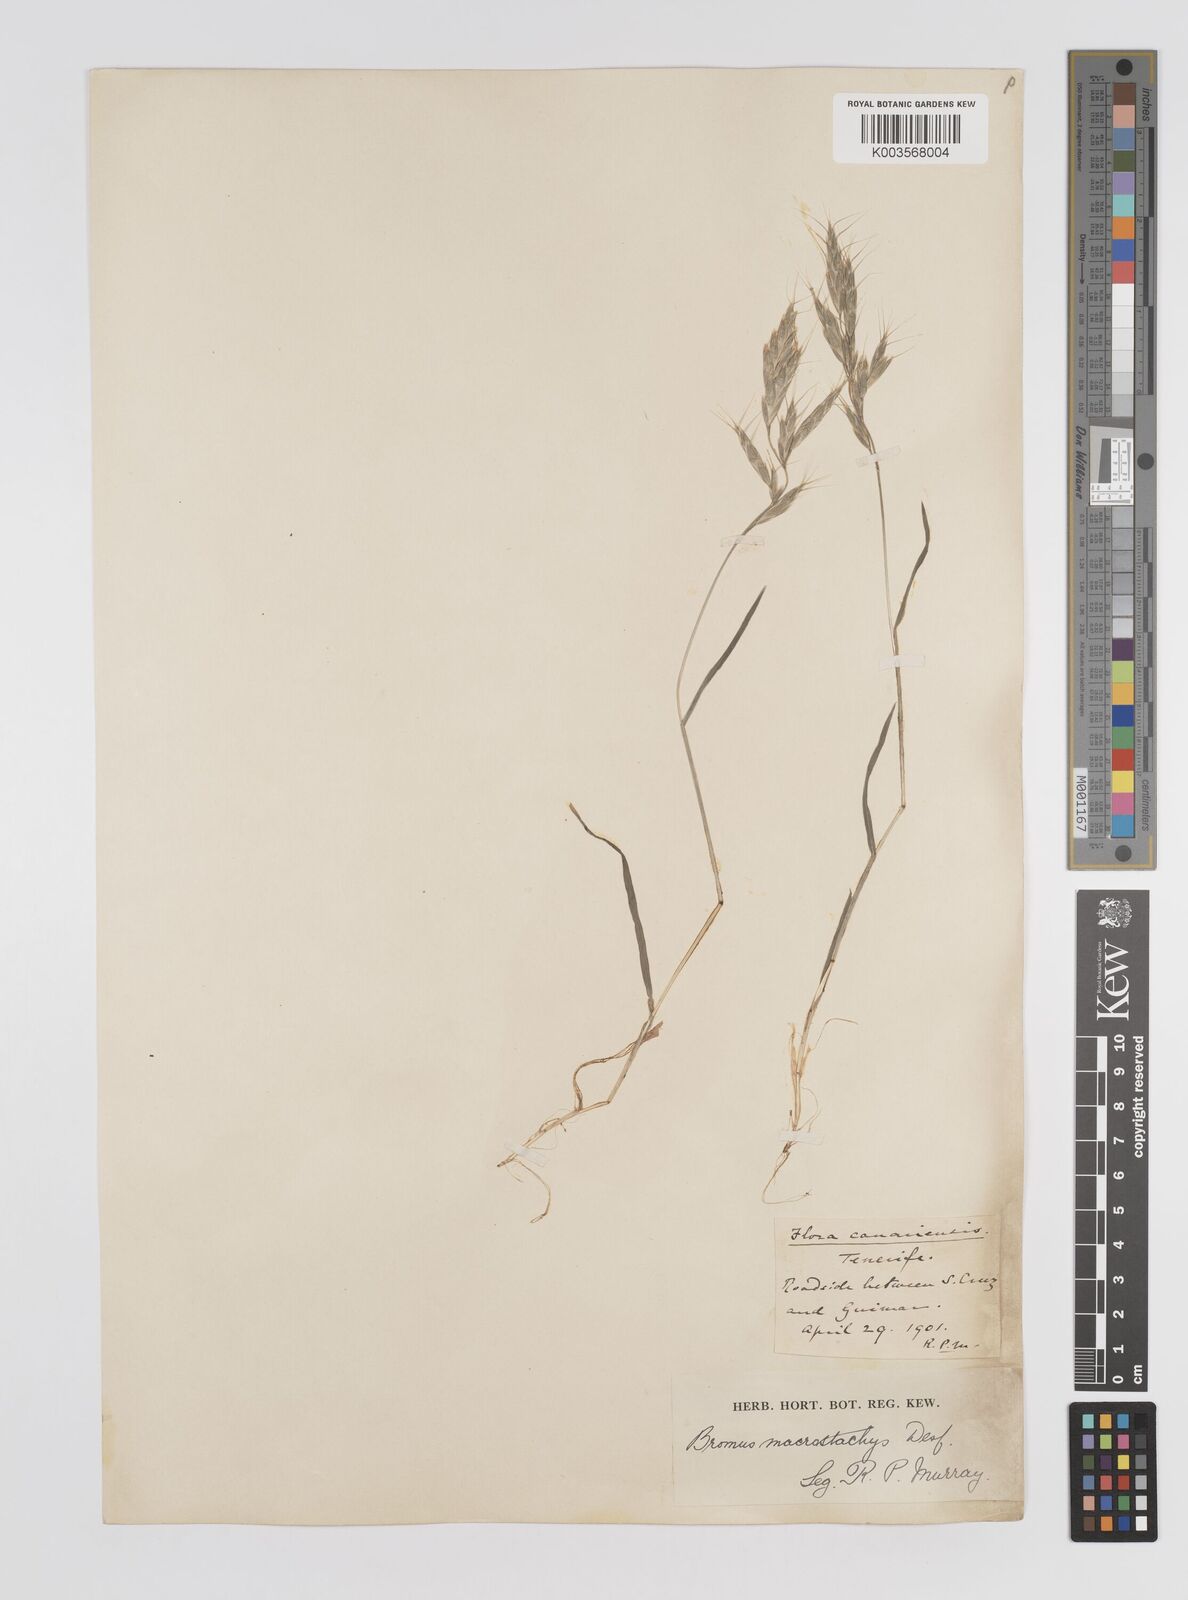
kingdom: Plantae
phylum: Tracheophyta
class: Liliopsida
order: Poales
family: Poaceae
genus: Bromus
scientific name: Bromus lanceolatus
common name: Mediterranean brome
